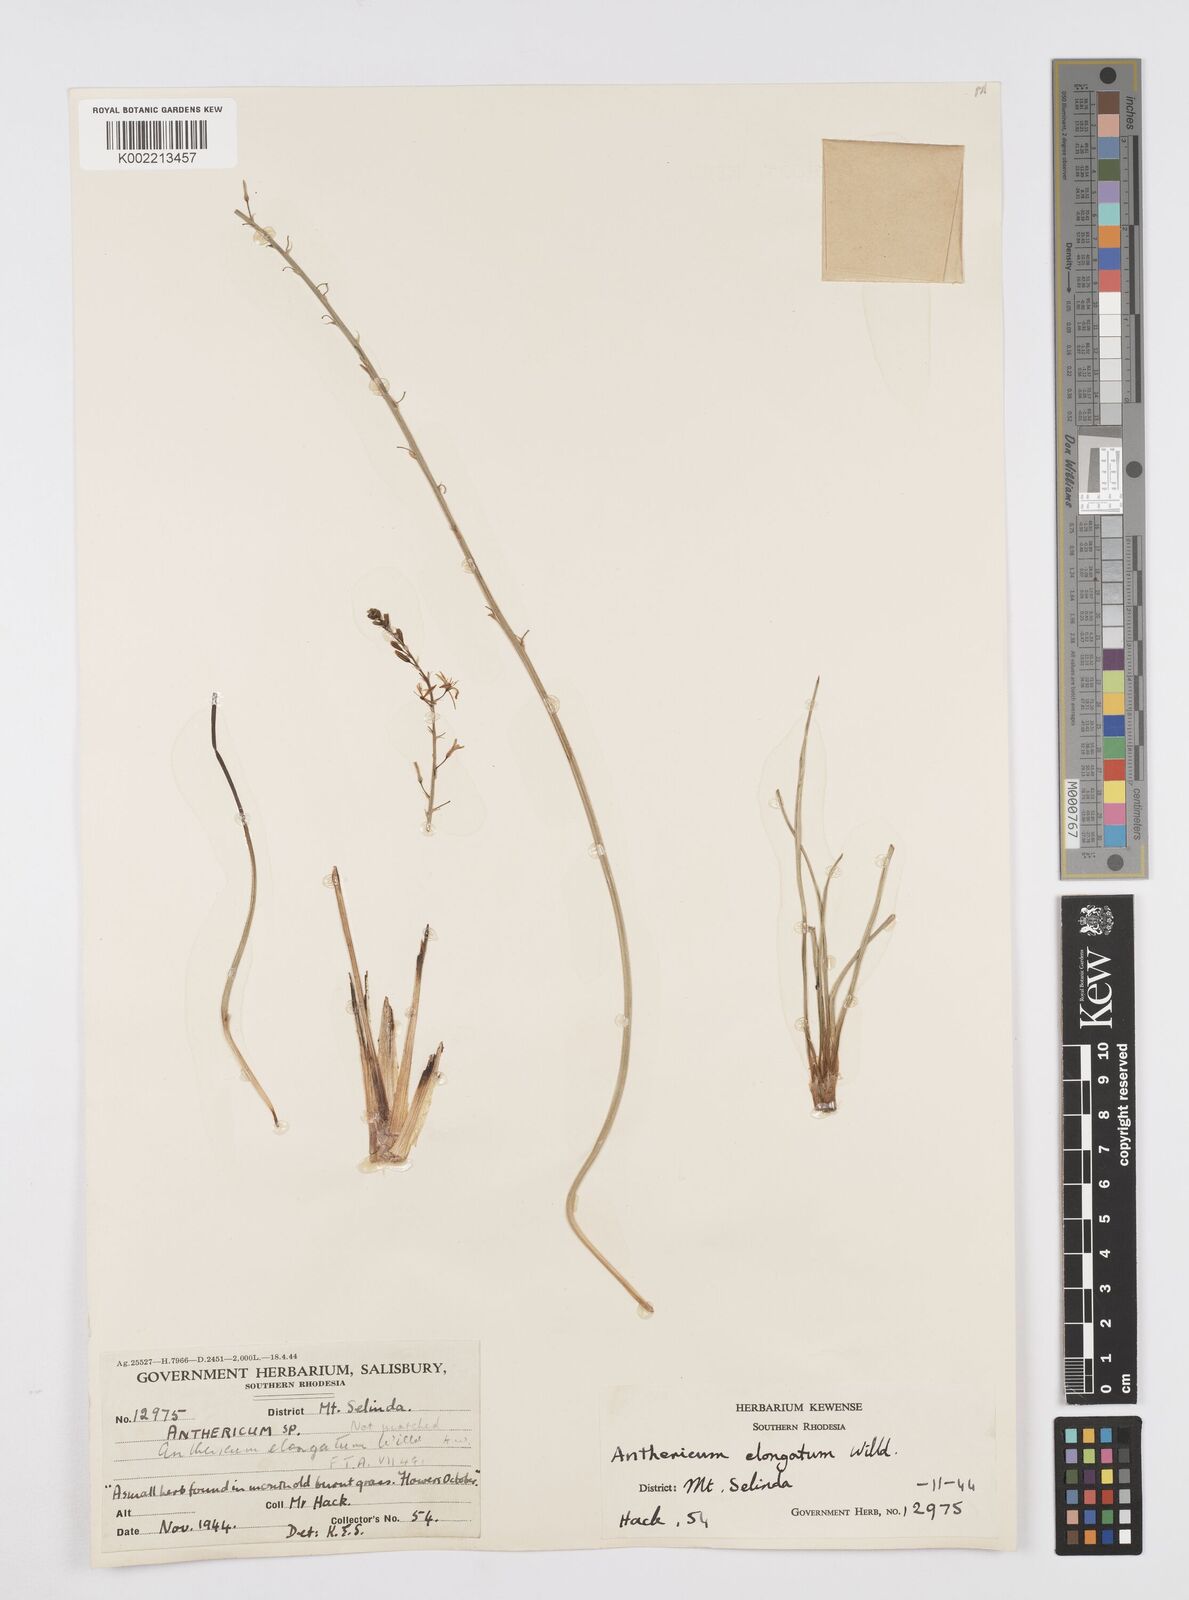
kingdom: Plantae
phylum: Tracheophyta
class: Liliopsida
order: Asparagales
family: Asphodelaceae
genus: Trachyandra
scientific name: Trachyandra saltii
